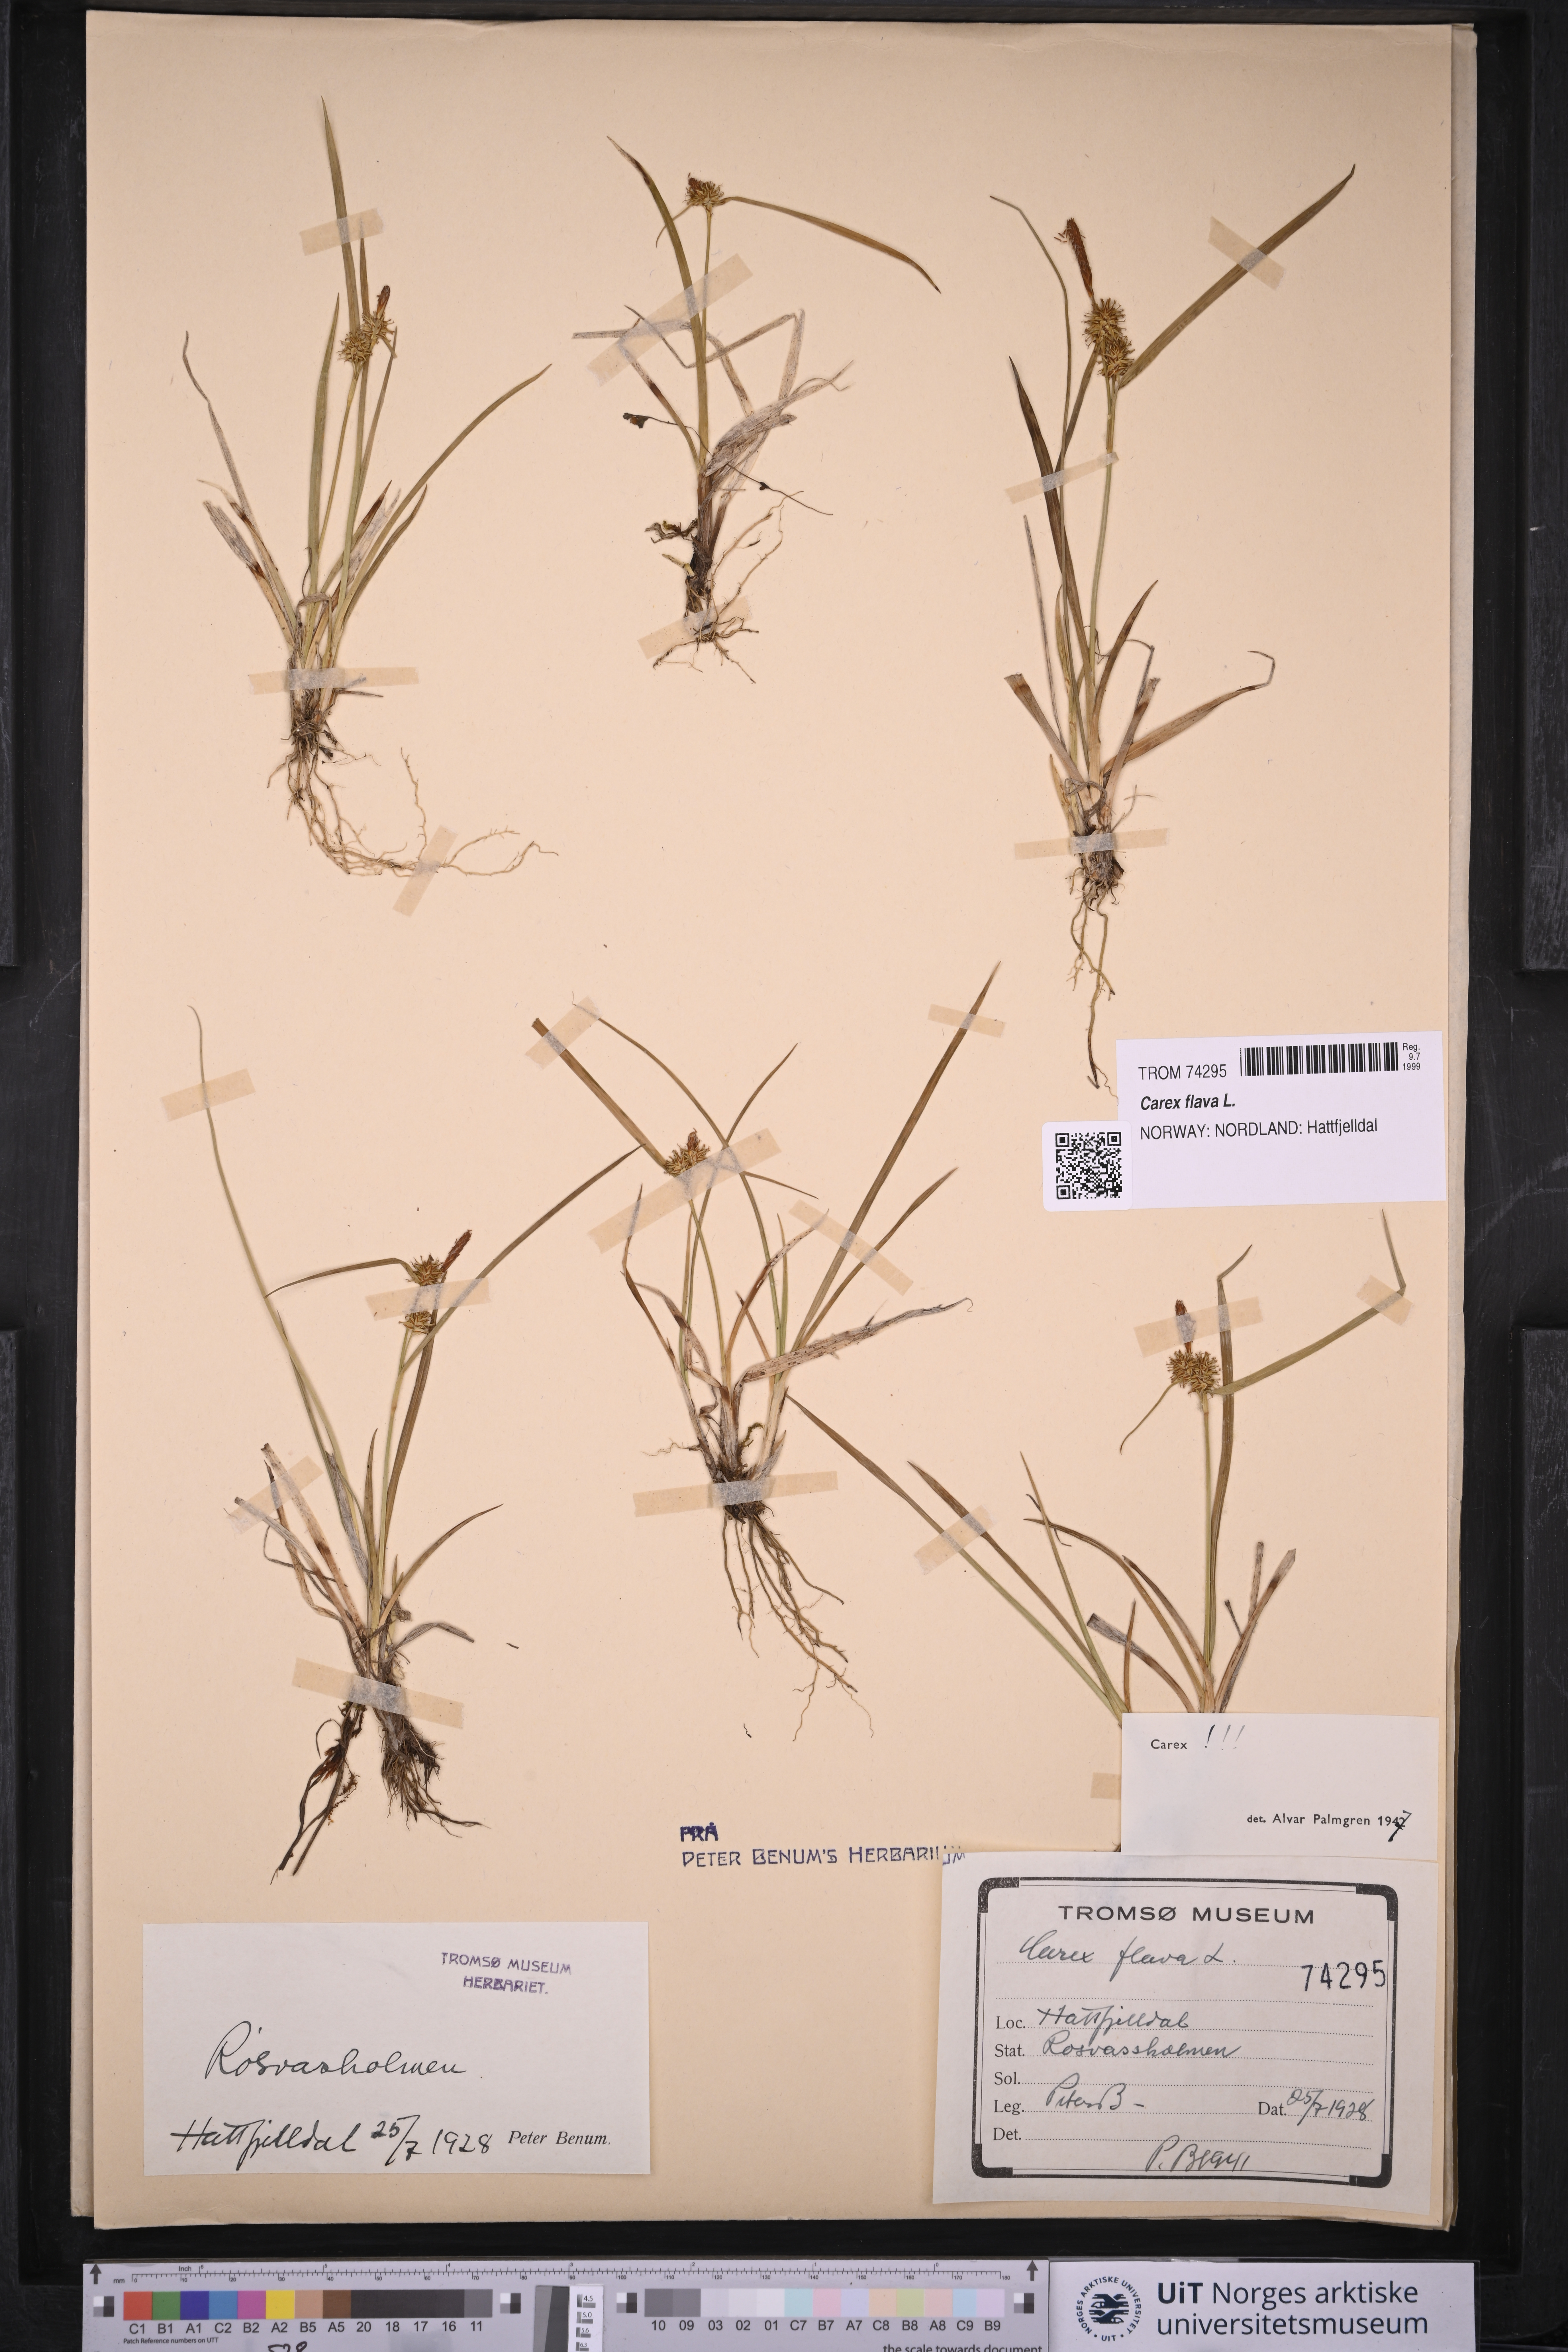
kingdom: Plantae
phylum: Tracheophyta
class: Liliopsida
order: Poales
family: Cyperaceae
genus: Carex
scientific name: Carex flava
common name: Large yellow-sedge
